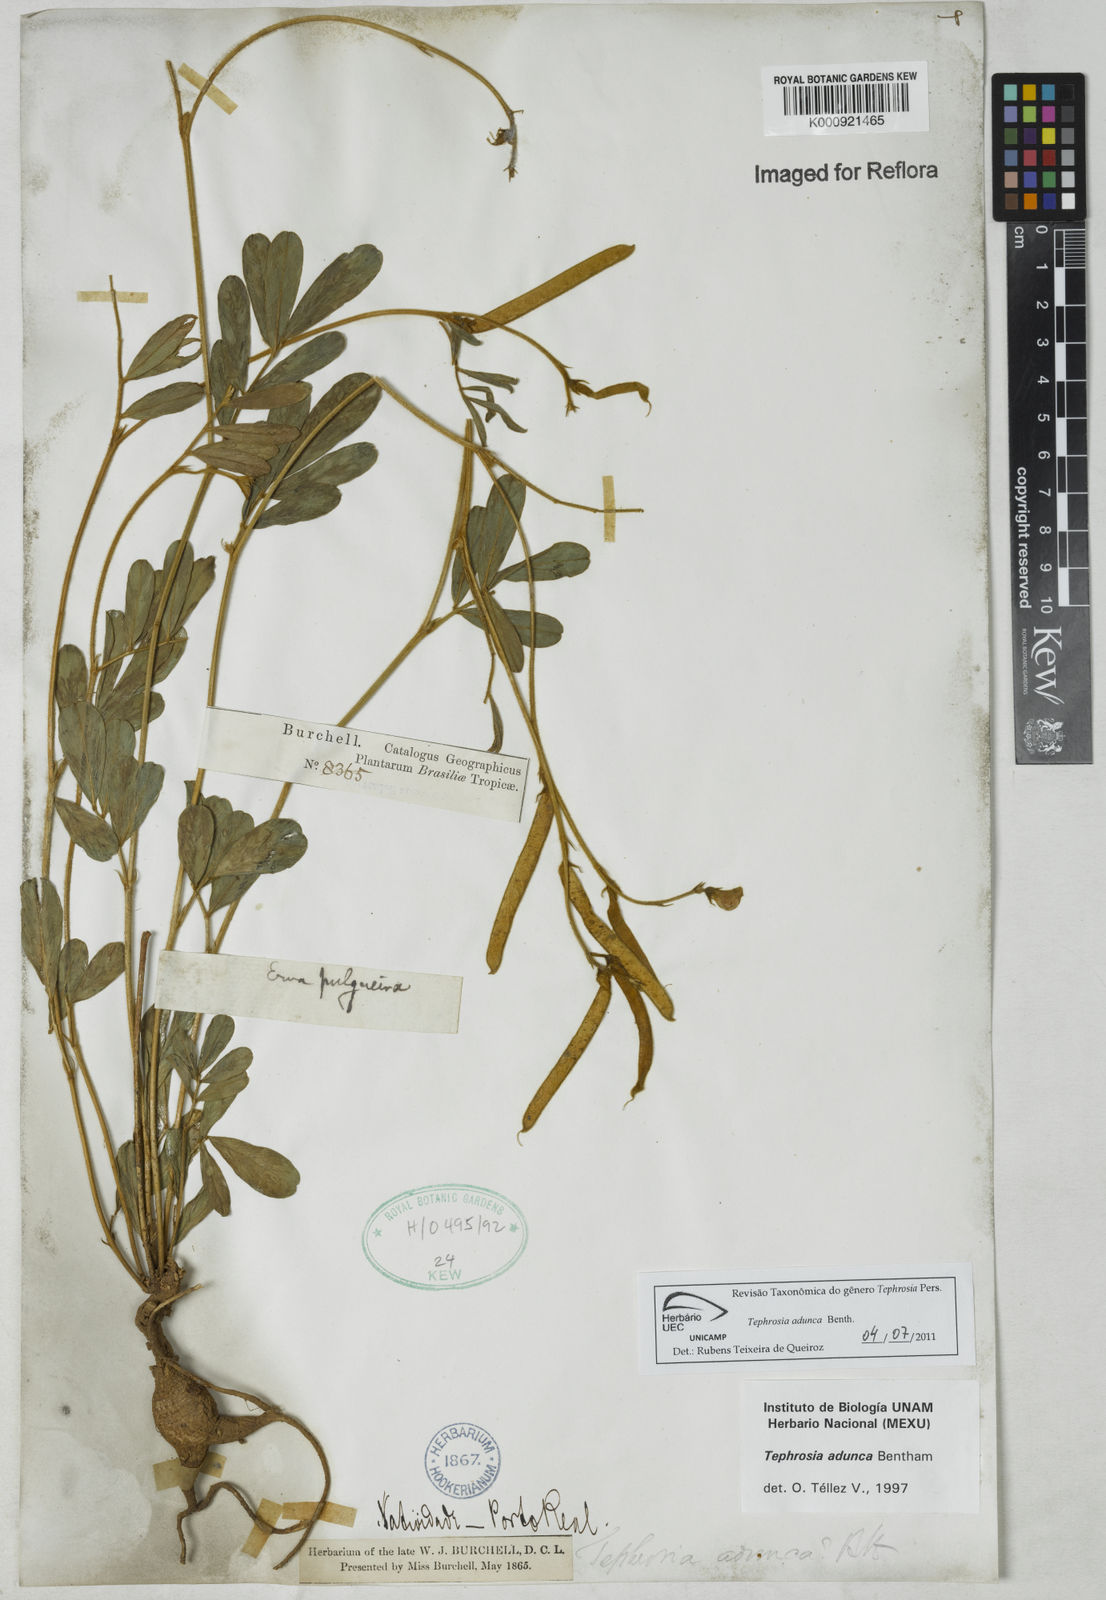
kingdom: Plantae
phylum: Tracheophyta
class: Magnoliopsida
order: Fabales
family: Fabaceae
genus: Tephrosia
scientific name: Tephrosia adunca
